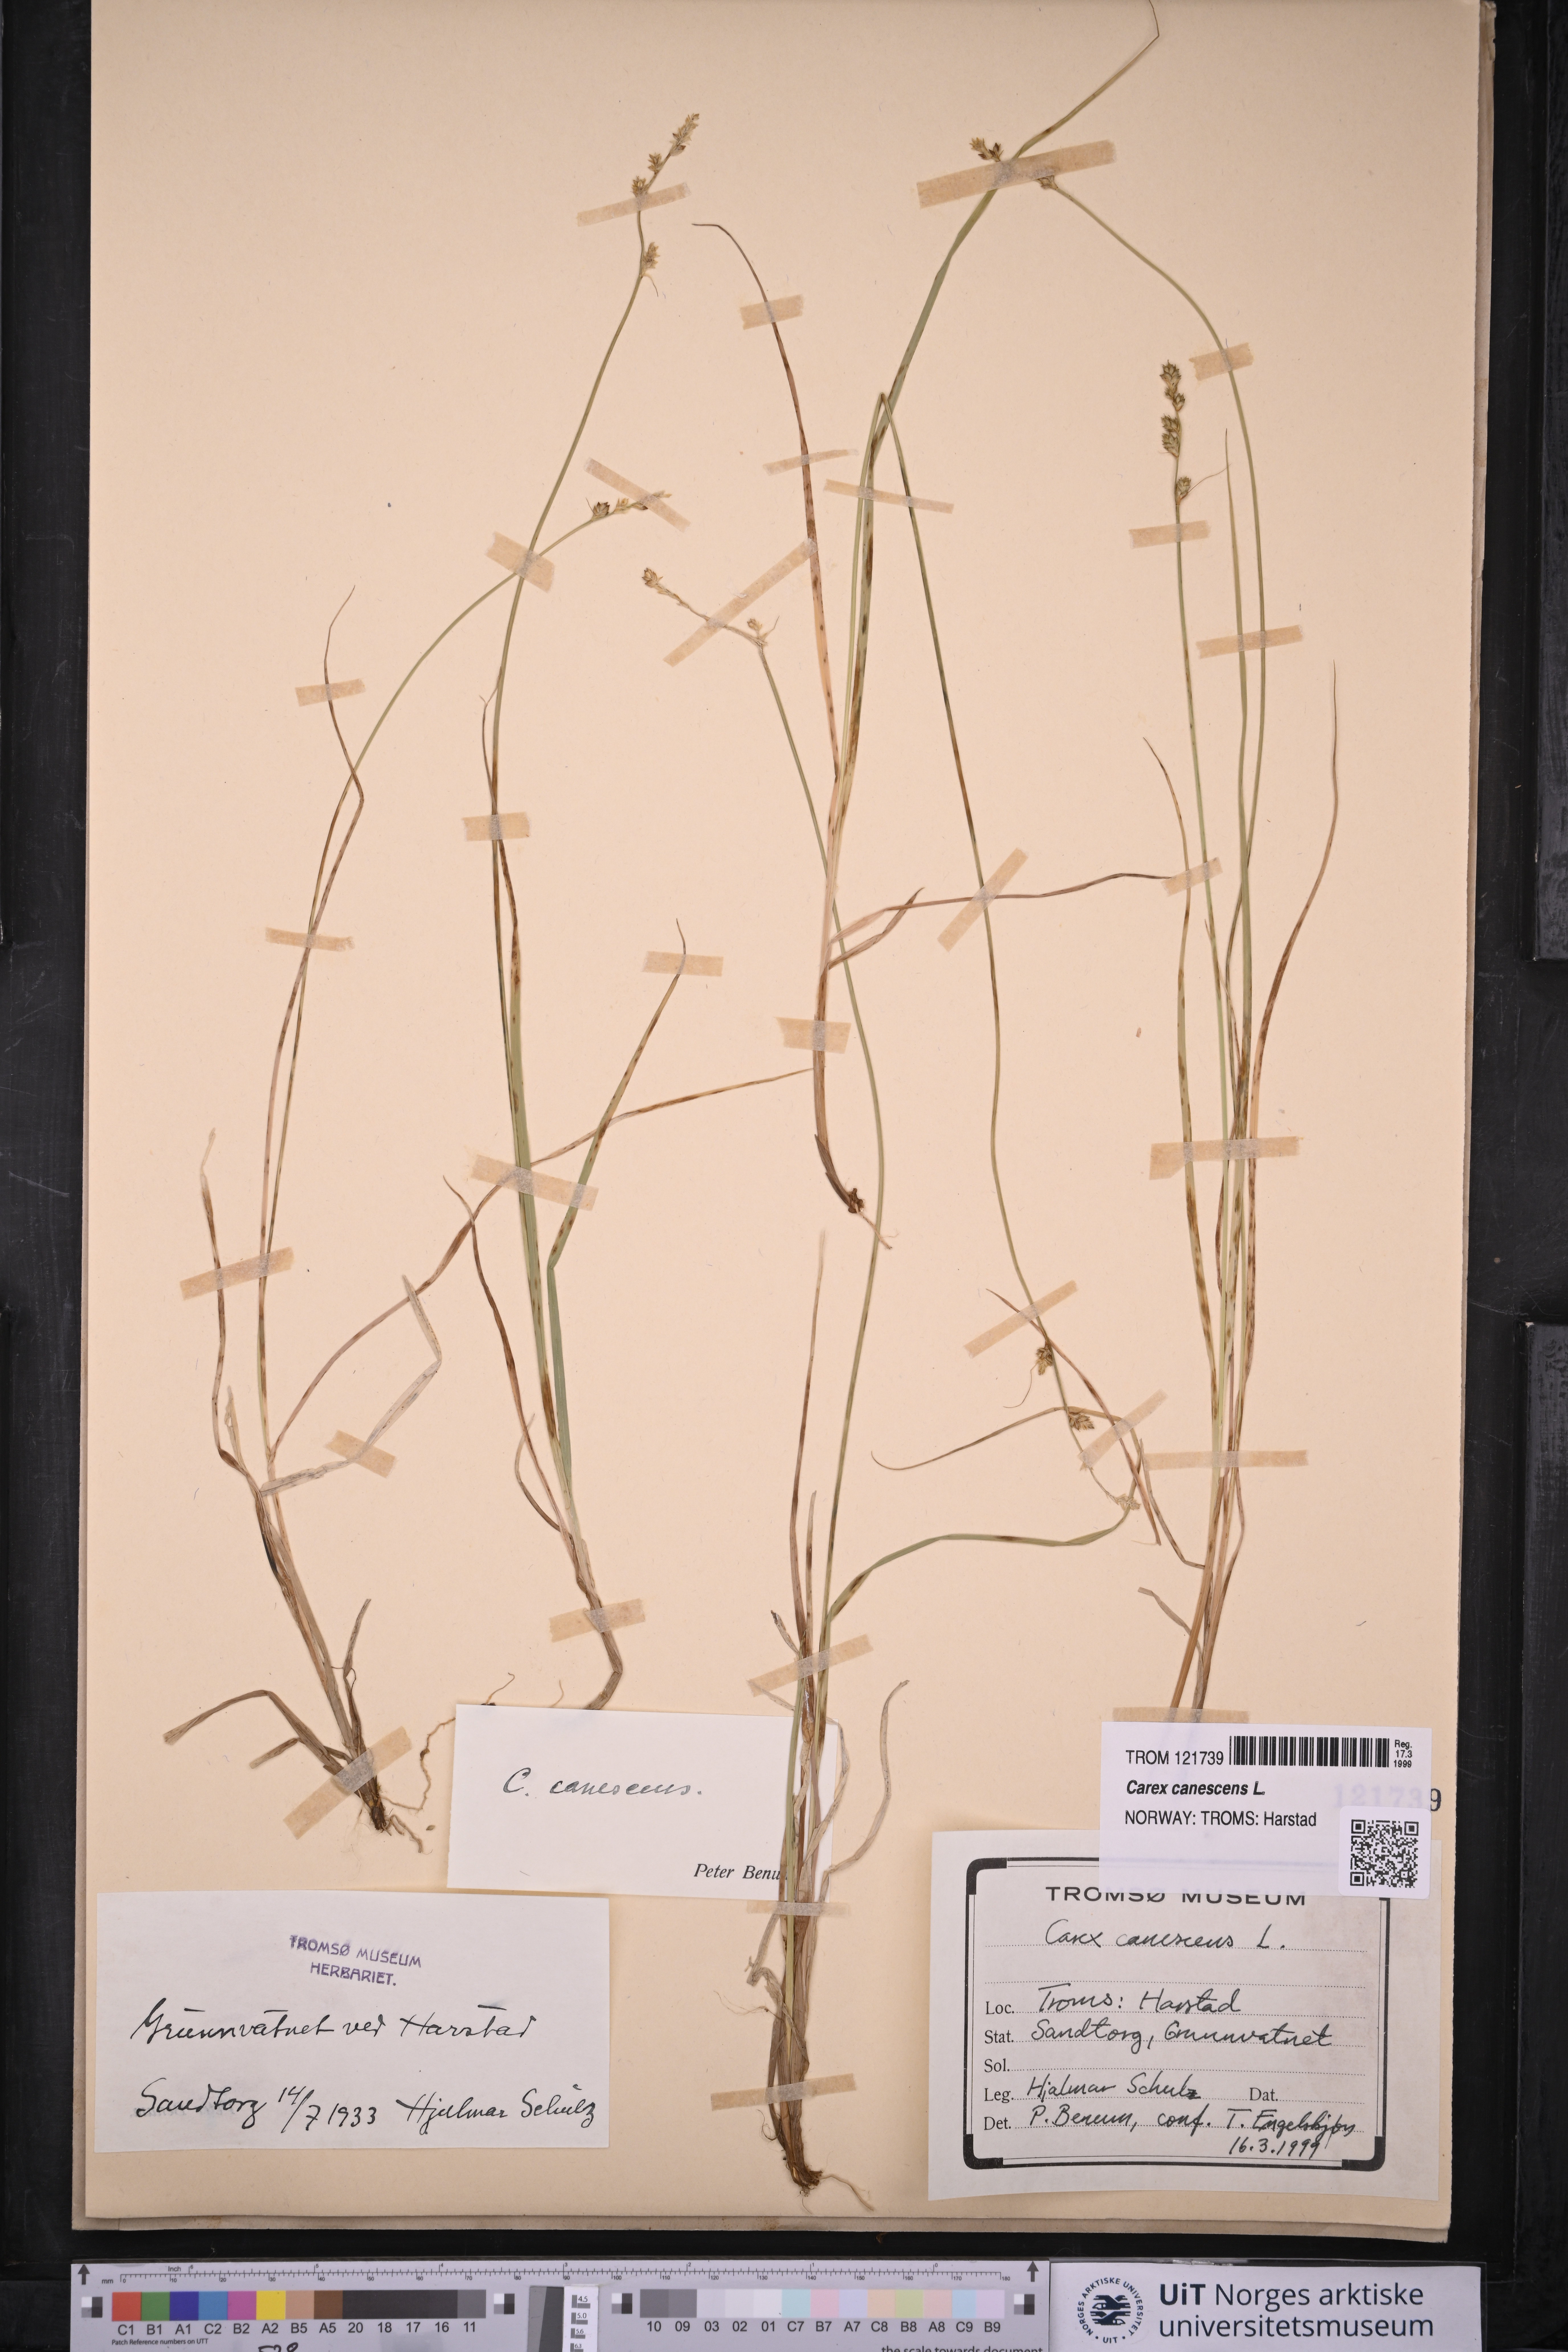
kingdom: Plantae
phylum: Tracheophyta
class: Liliopsida
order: Poales
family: Cyperaceae
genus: Carex
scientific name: Carex canescens
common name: White sedge
